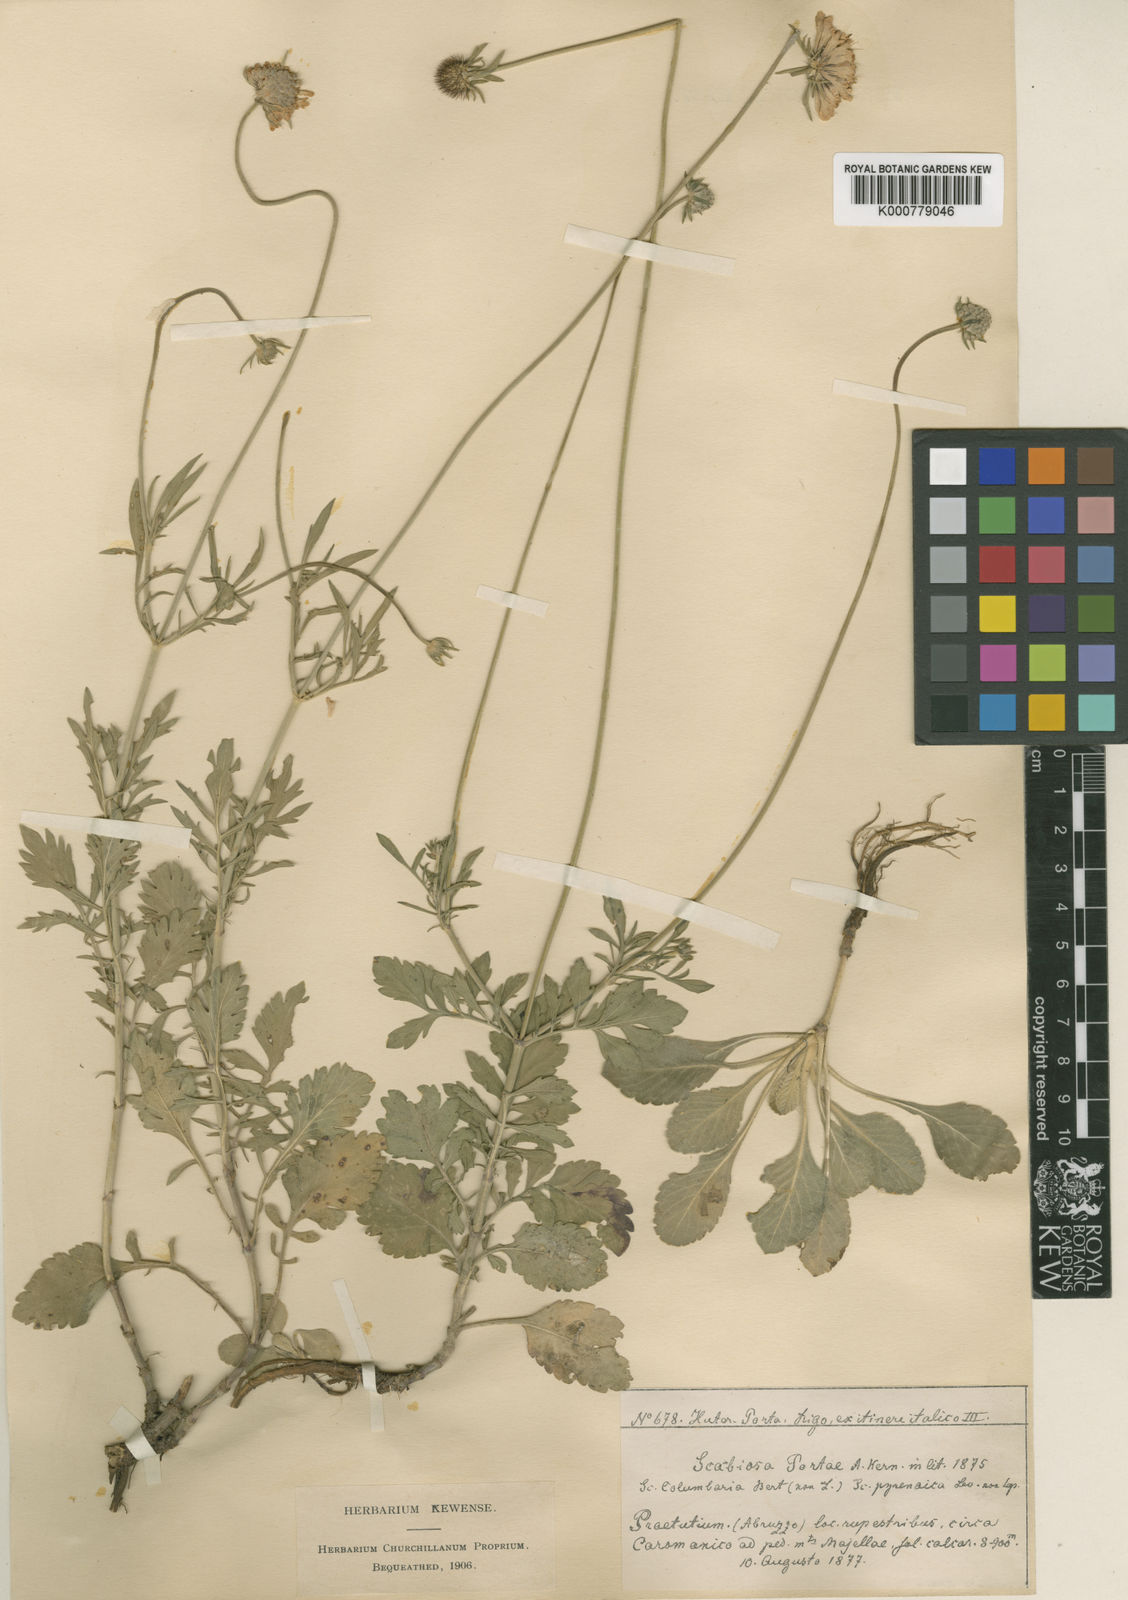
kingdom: Plantae
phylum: Tracheophyta
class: Magnoliopsida
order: Dipsacales
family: Caprifoliaceae
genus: Scabiosa
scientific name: Scabiosa columbaria
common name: Small scabious
